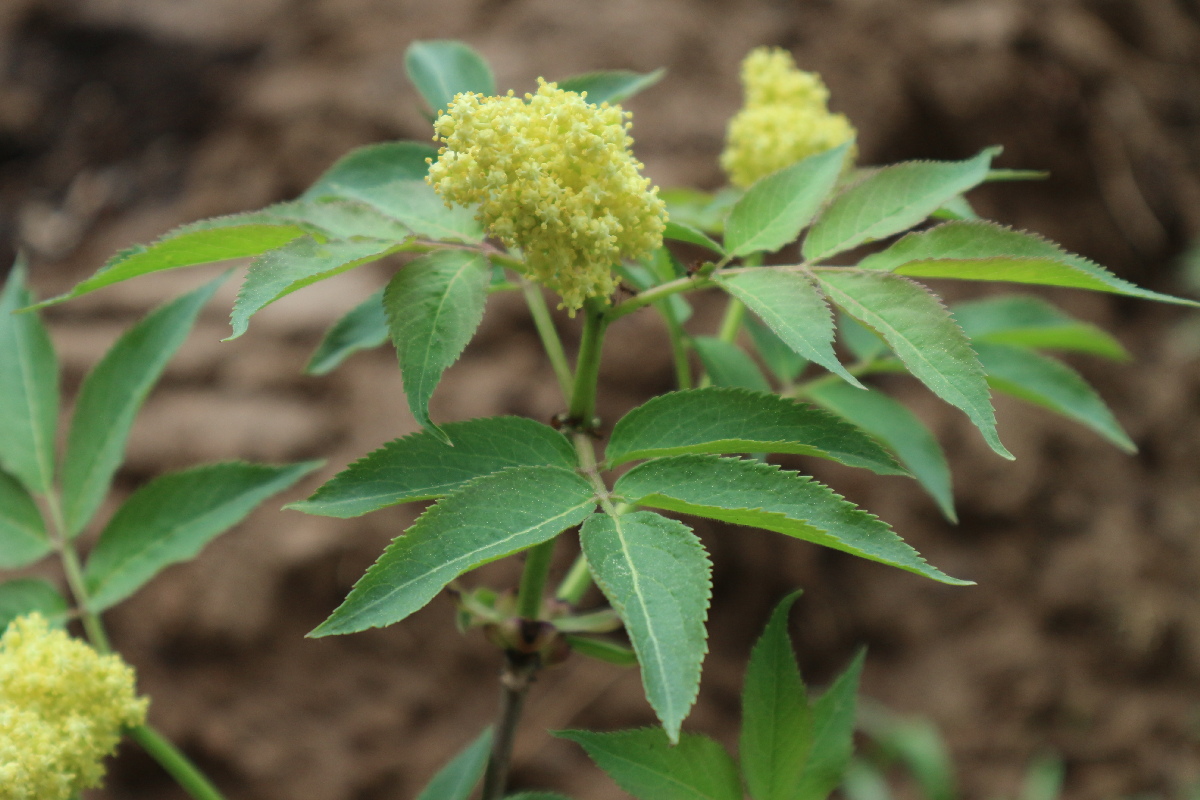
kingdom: Plantae
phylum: Tracheophyta
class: Magnoliopsida
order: Dipsacales
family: Viburnaceae
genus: Sambucus
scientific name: Sambucus racemosa
